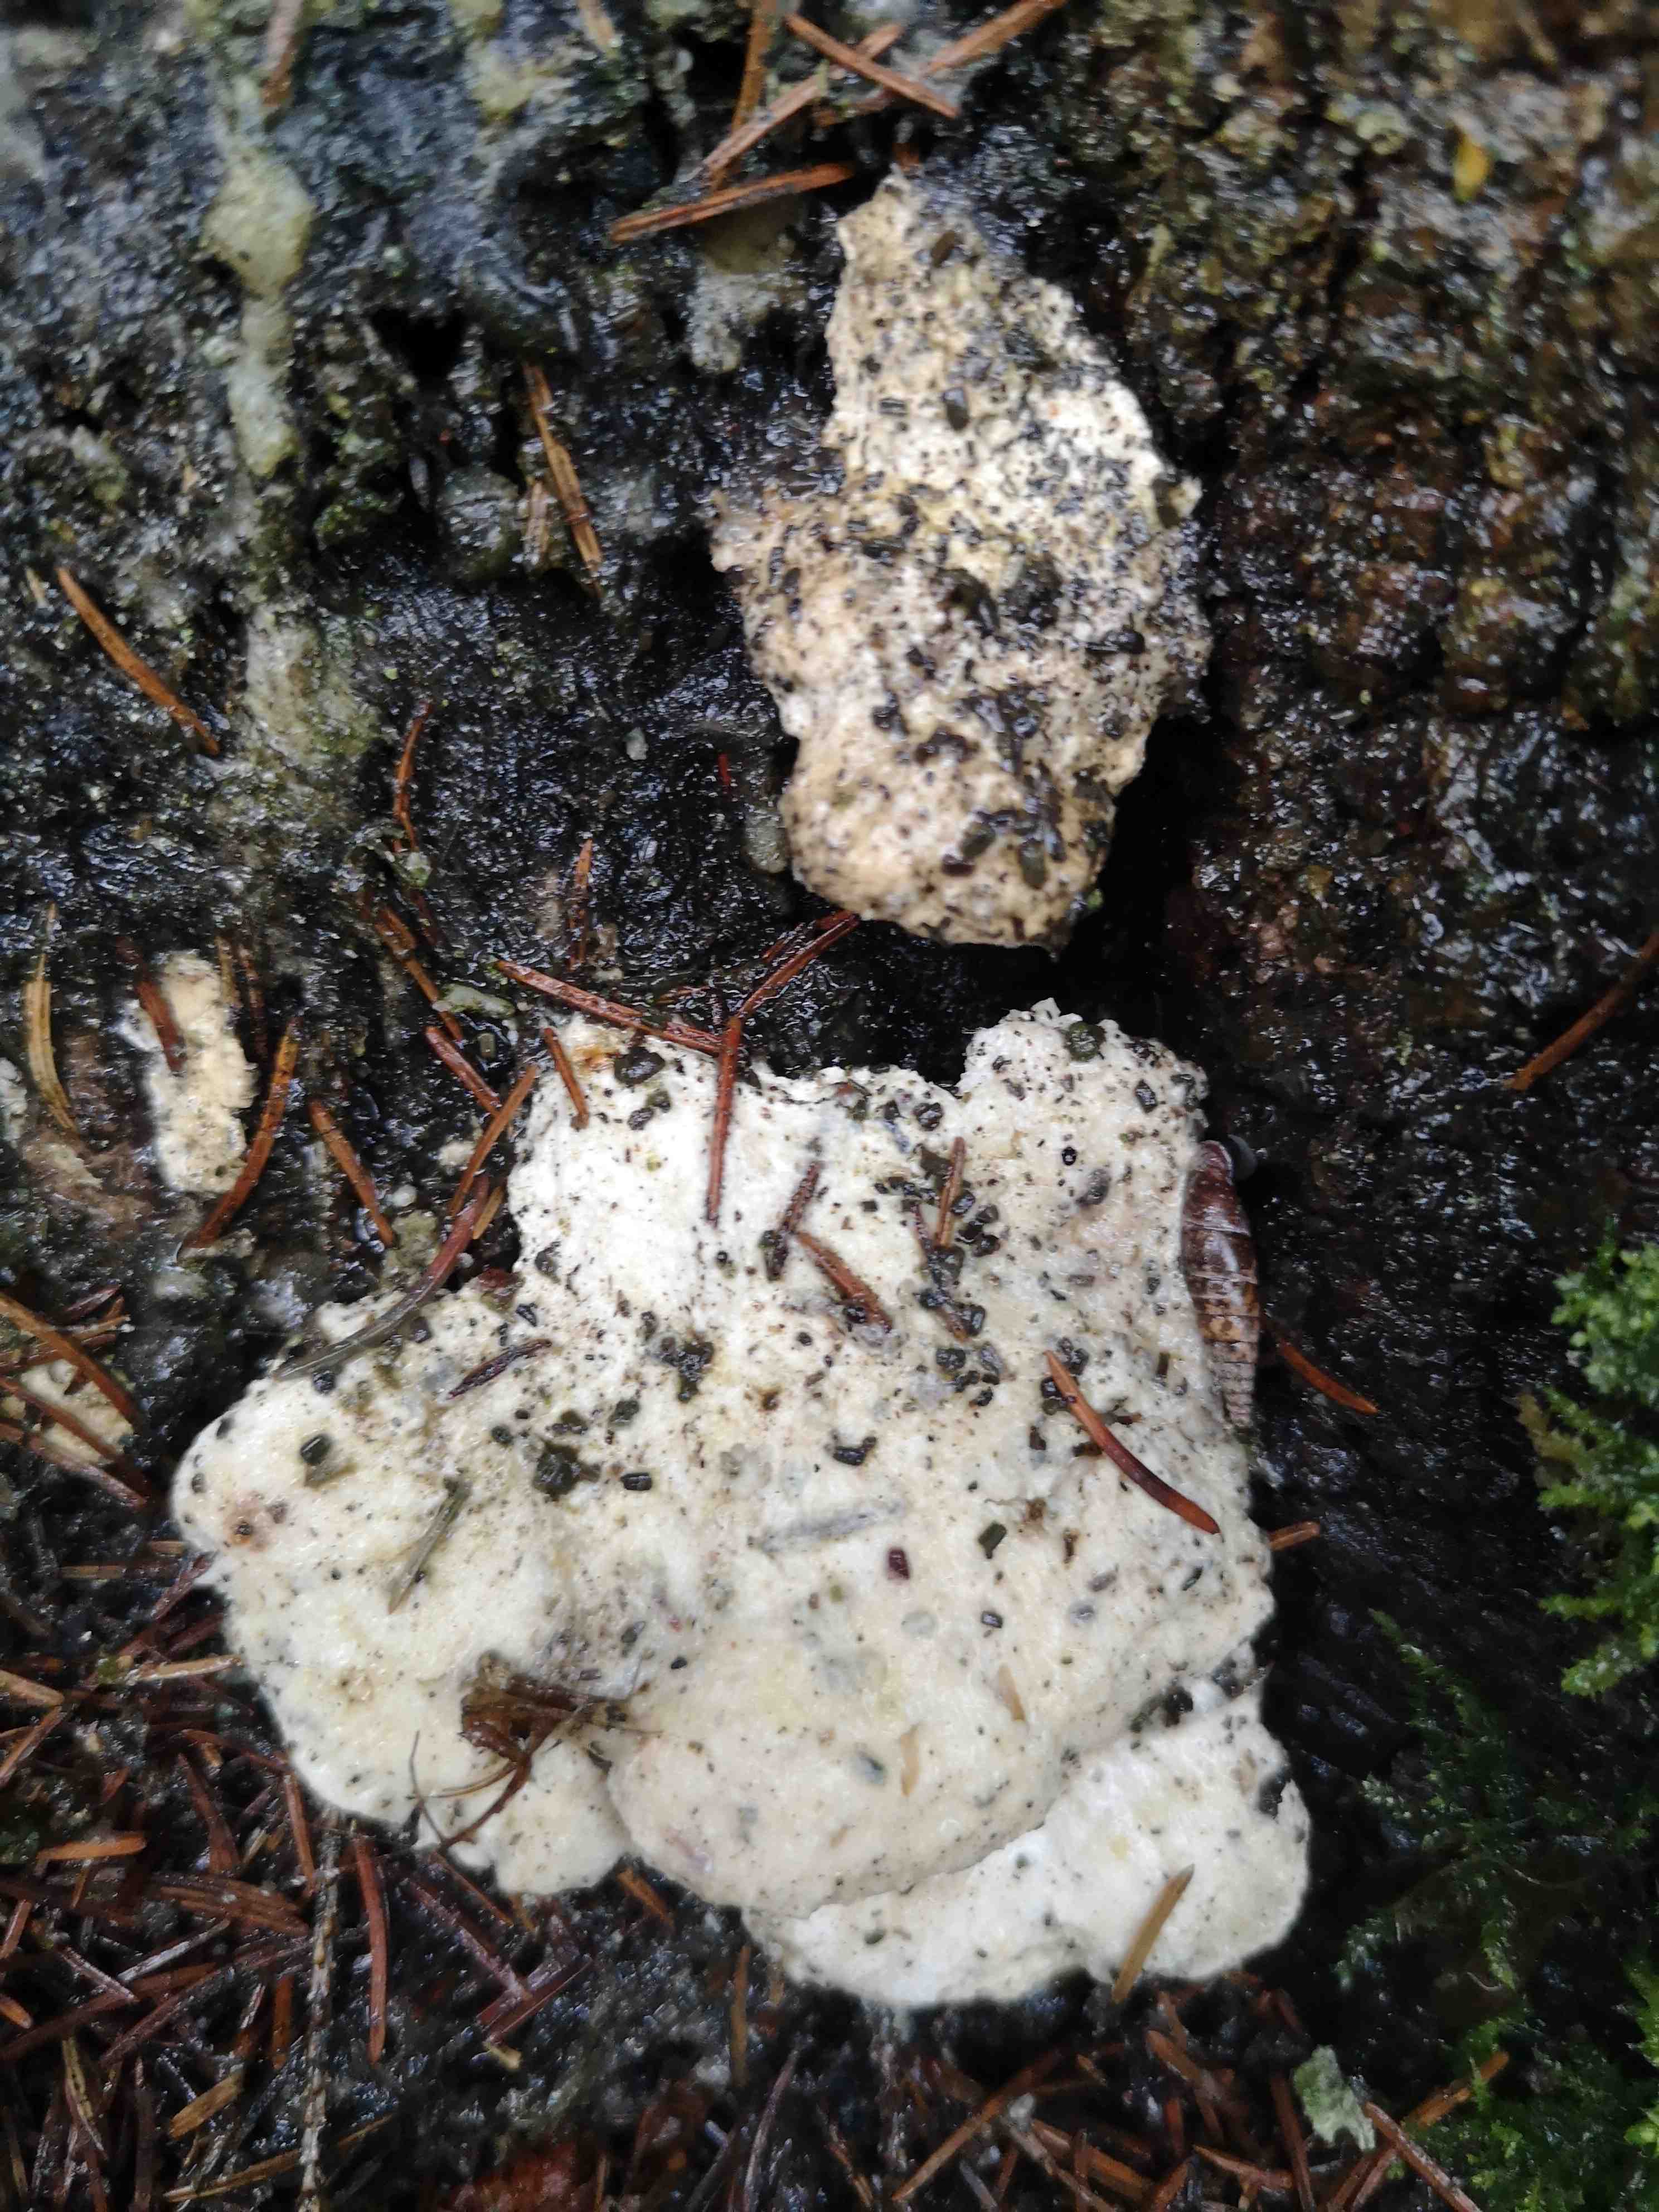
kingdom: Fungi
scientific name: Fungi
